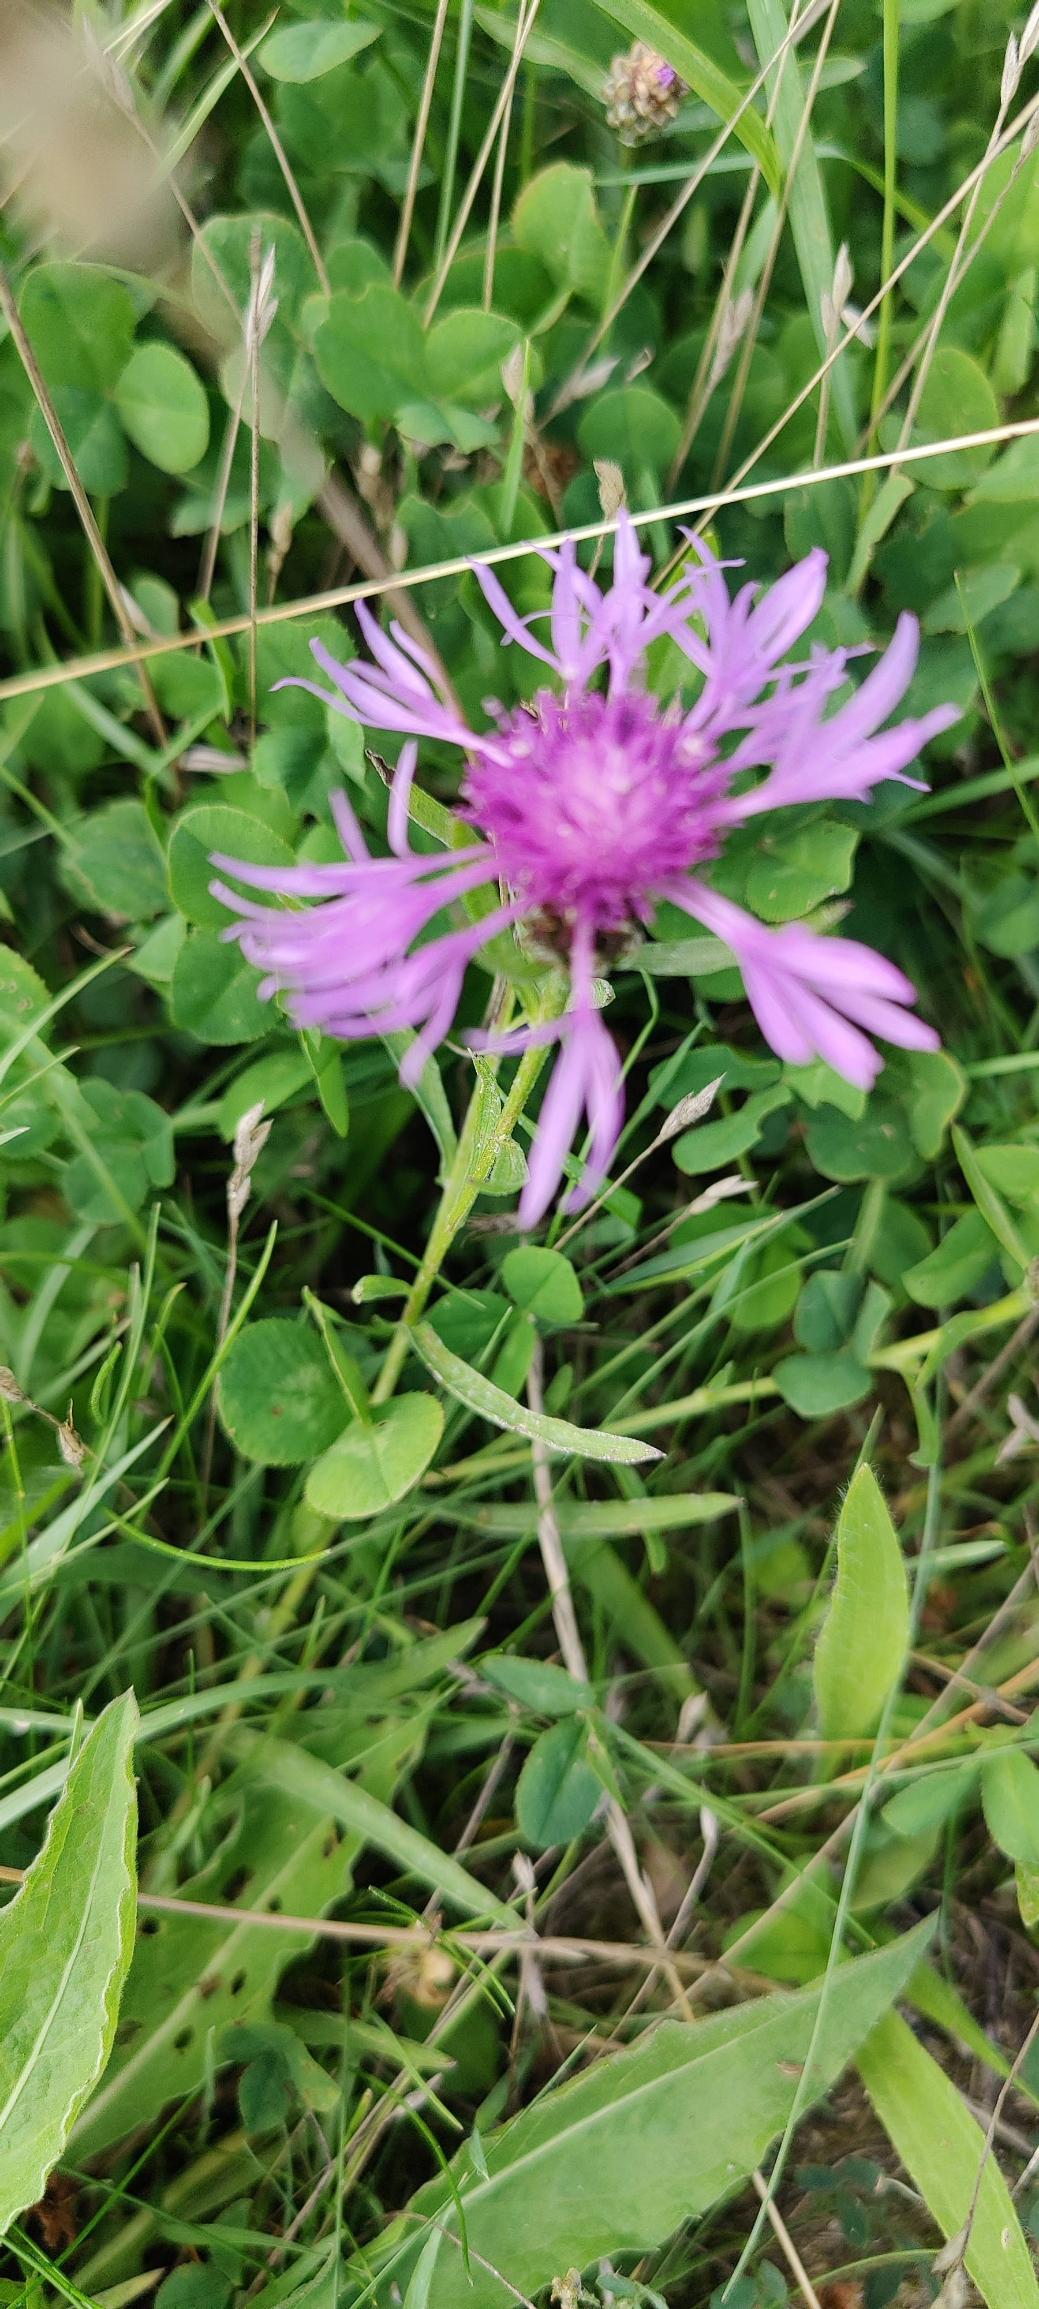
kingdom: Plantae
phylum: Tracheophyta
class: Magnoliopsida
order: Asterales
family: Asteraceae
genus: Centaurea
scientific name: Centaurea jacea
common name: Almindelig knopurt
